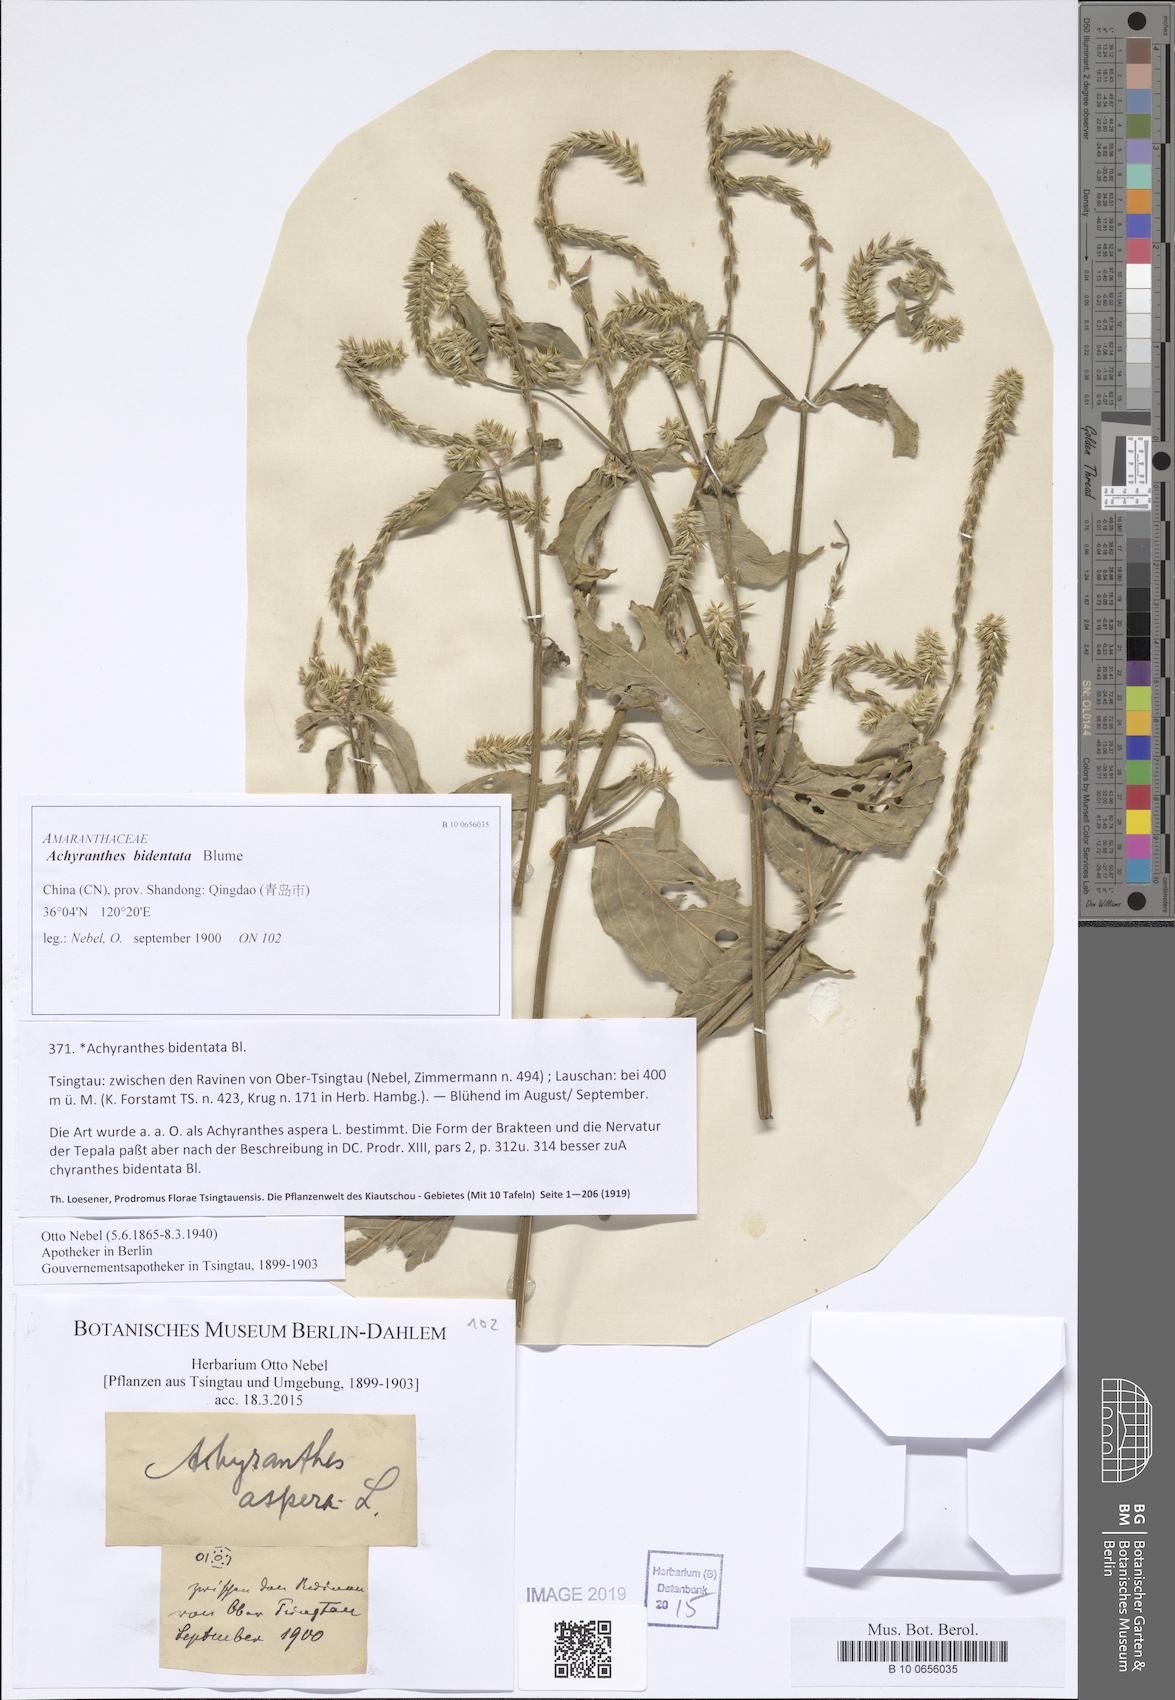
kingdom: Plantae
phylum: Tracheophyta
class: Magnoliopsida
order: Caryophyllales
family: Amaranthaceae
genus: Achyranthes
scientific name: Achyranthes bidentata
